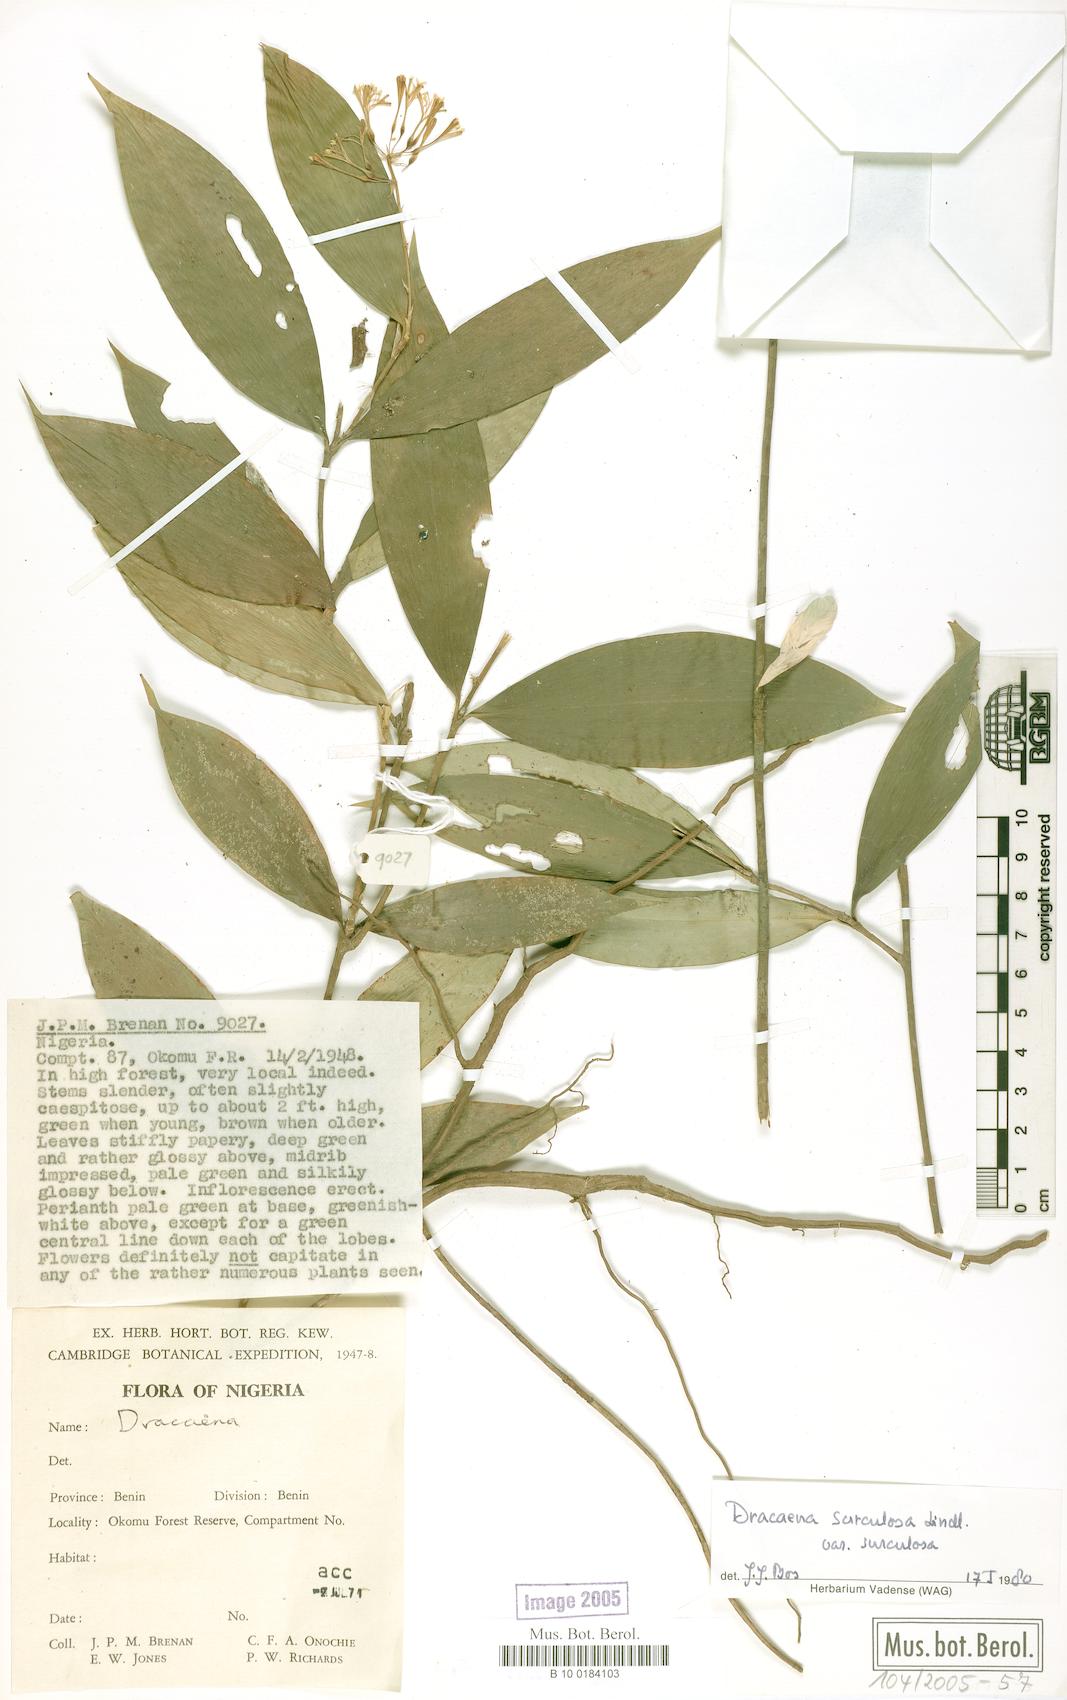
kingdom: Plantae
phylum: Tracheophyta
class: Liliopsida
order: Asparagales
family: Asparagaceae
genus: Dracaena
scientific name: Dracaena surculosa
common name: Spotted dracaena
